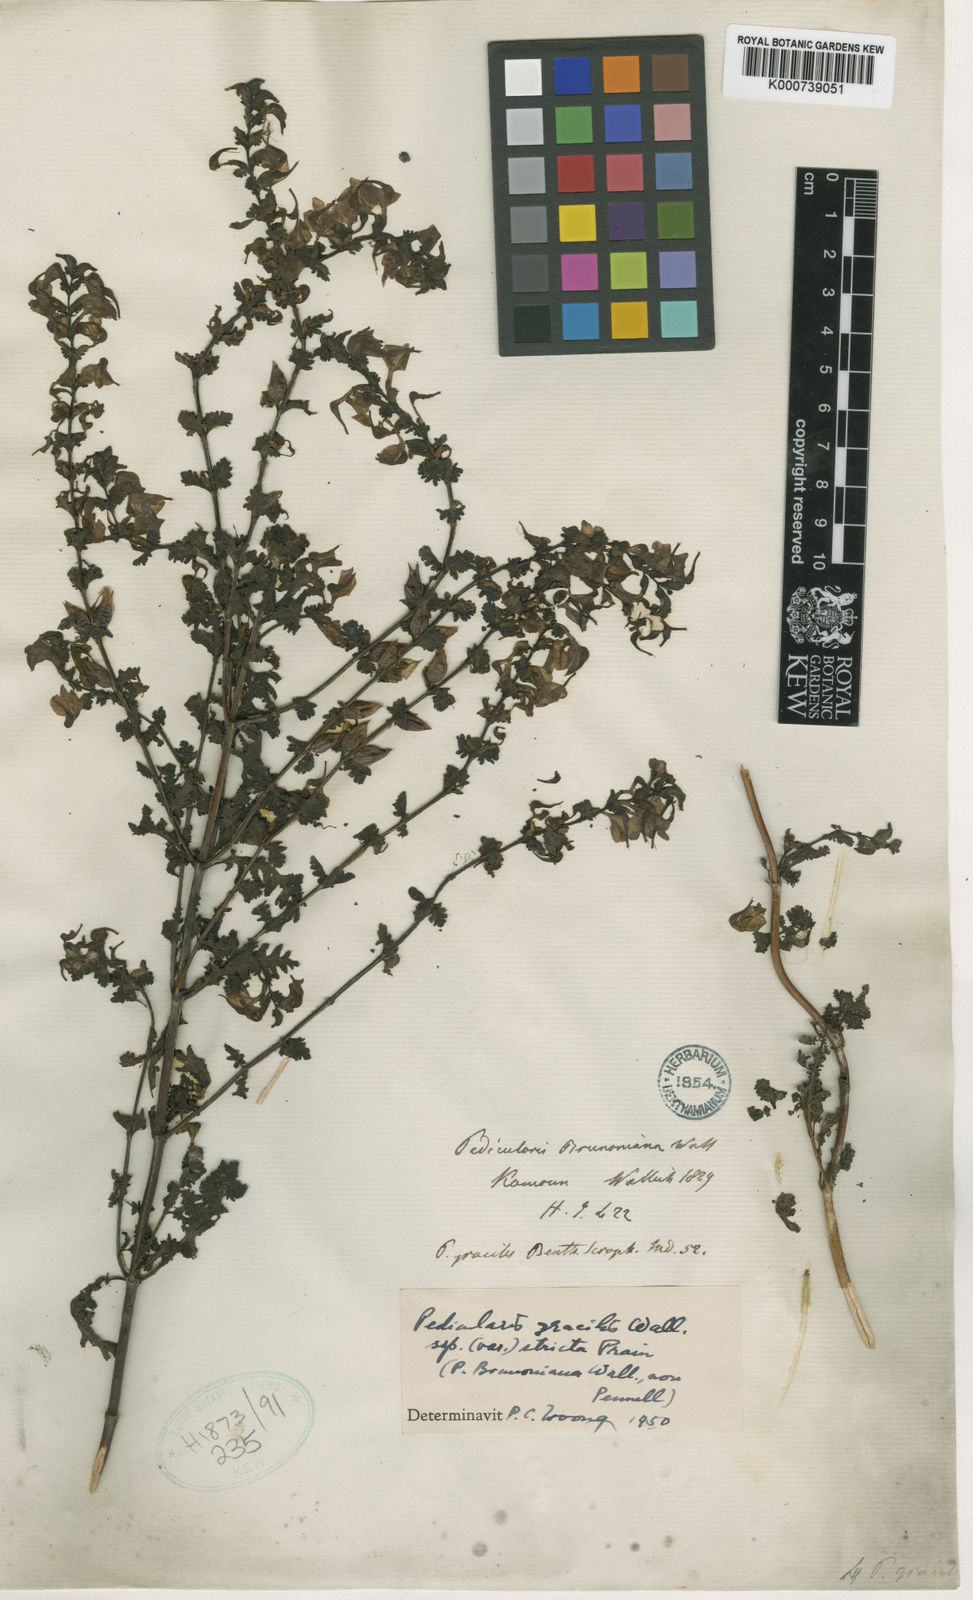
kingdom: Plantae
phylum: Tracheophyta
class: Magnoliopsida
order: Lamiales
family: Orobanchaceae
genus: Pedicularis
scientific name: Pedicularis gracilis
